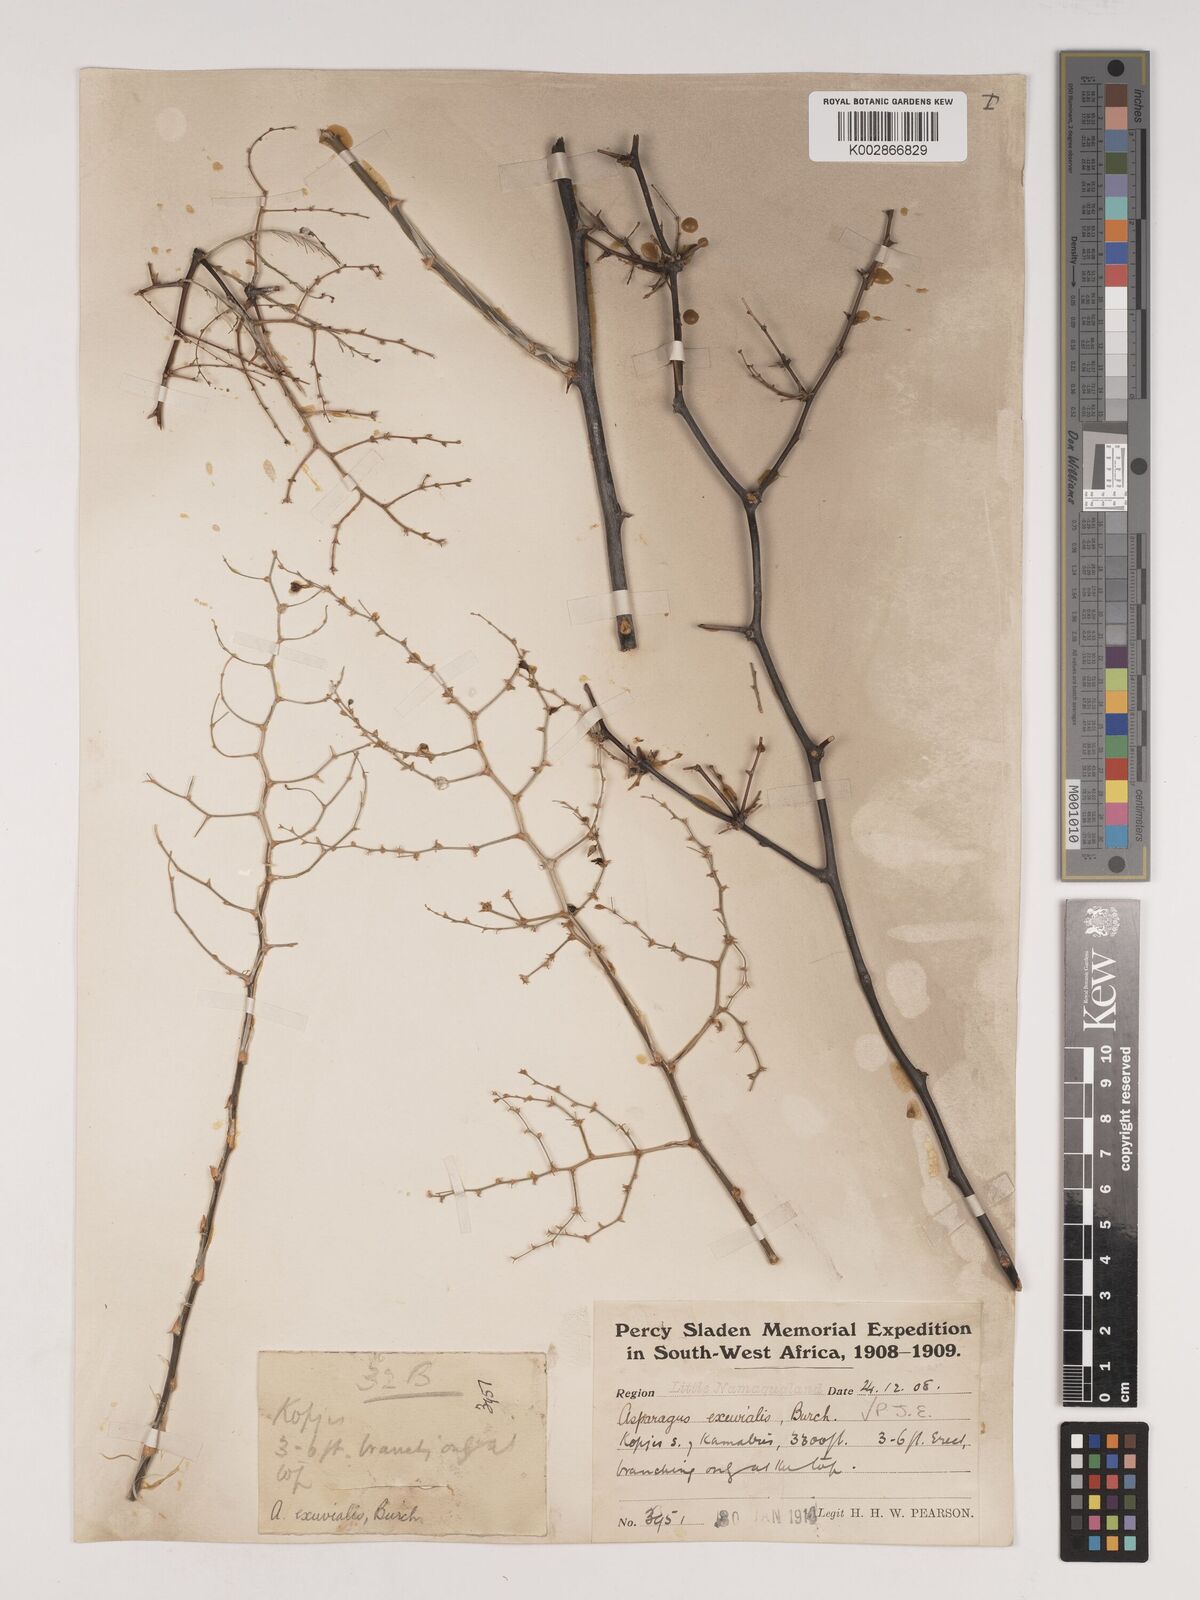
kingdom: Plantae
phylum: Tracheophyta
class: Liliopsida
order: Asparagales
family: Asparagaceae
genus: Asparagus
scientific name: Asparagus exuvialis
